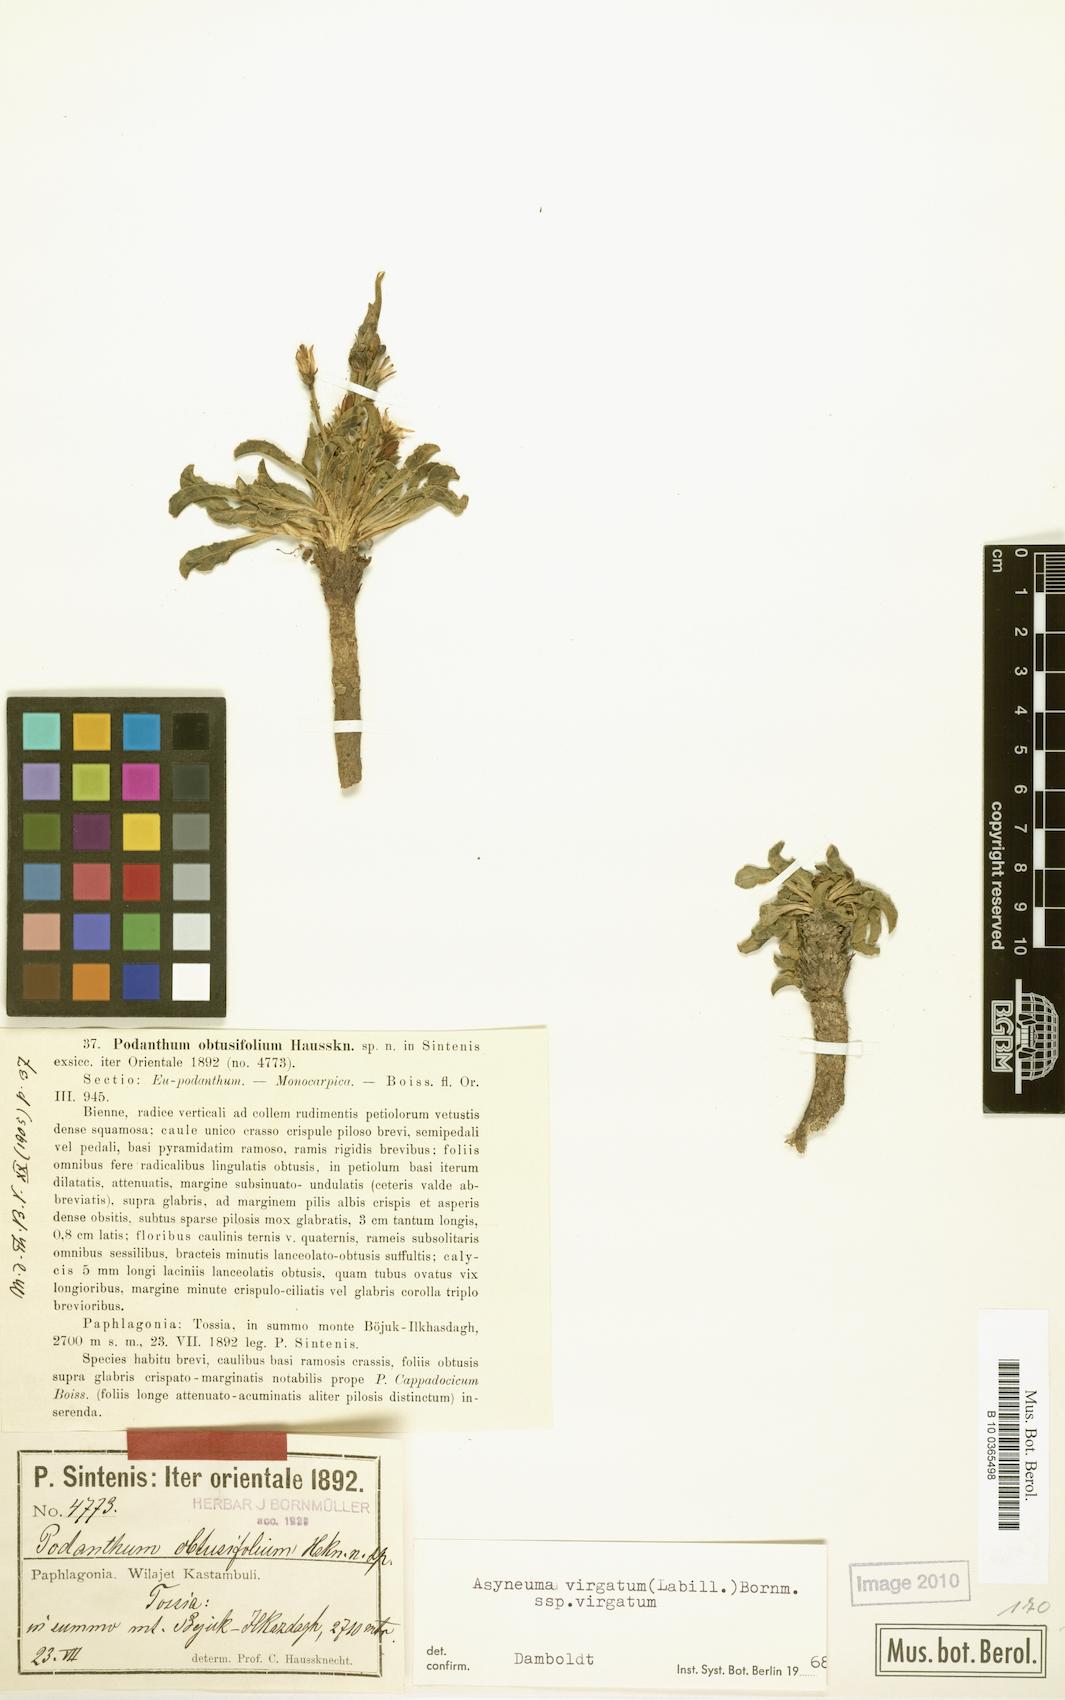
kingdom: Plantae
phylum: Tracheophyta
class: Magnoliopsida
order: Asterales
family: Campanulaceae
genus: Asyneuma
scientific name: Asyneuma virgatum
